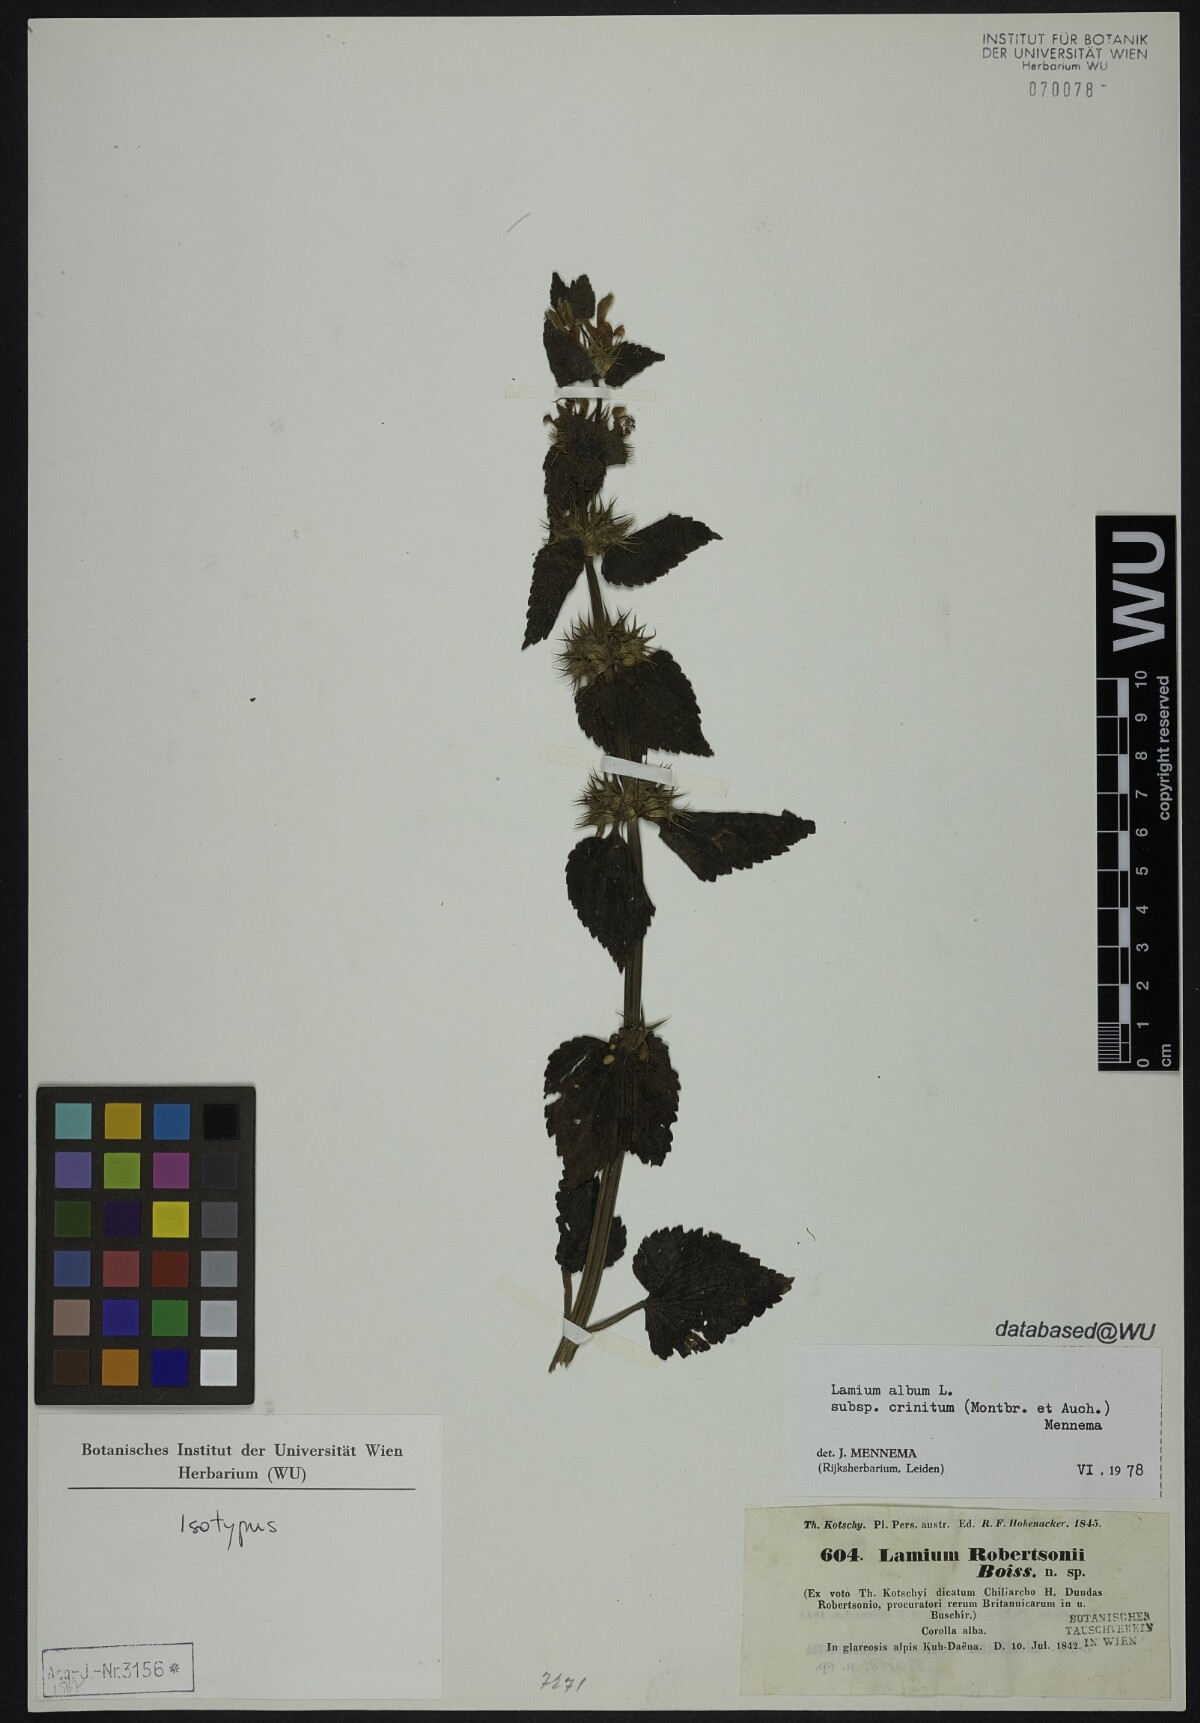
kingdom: Plantae
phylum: Tracheophyta
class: Magnoliopsida
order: Lamiales
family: Lamiaceae
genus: Lamium
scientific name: Lamium album
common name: White dead-nettle
